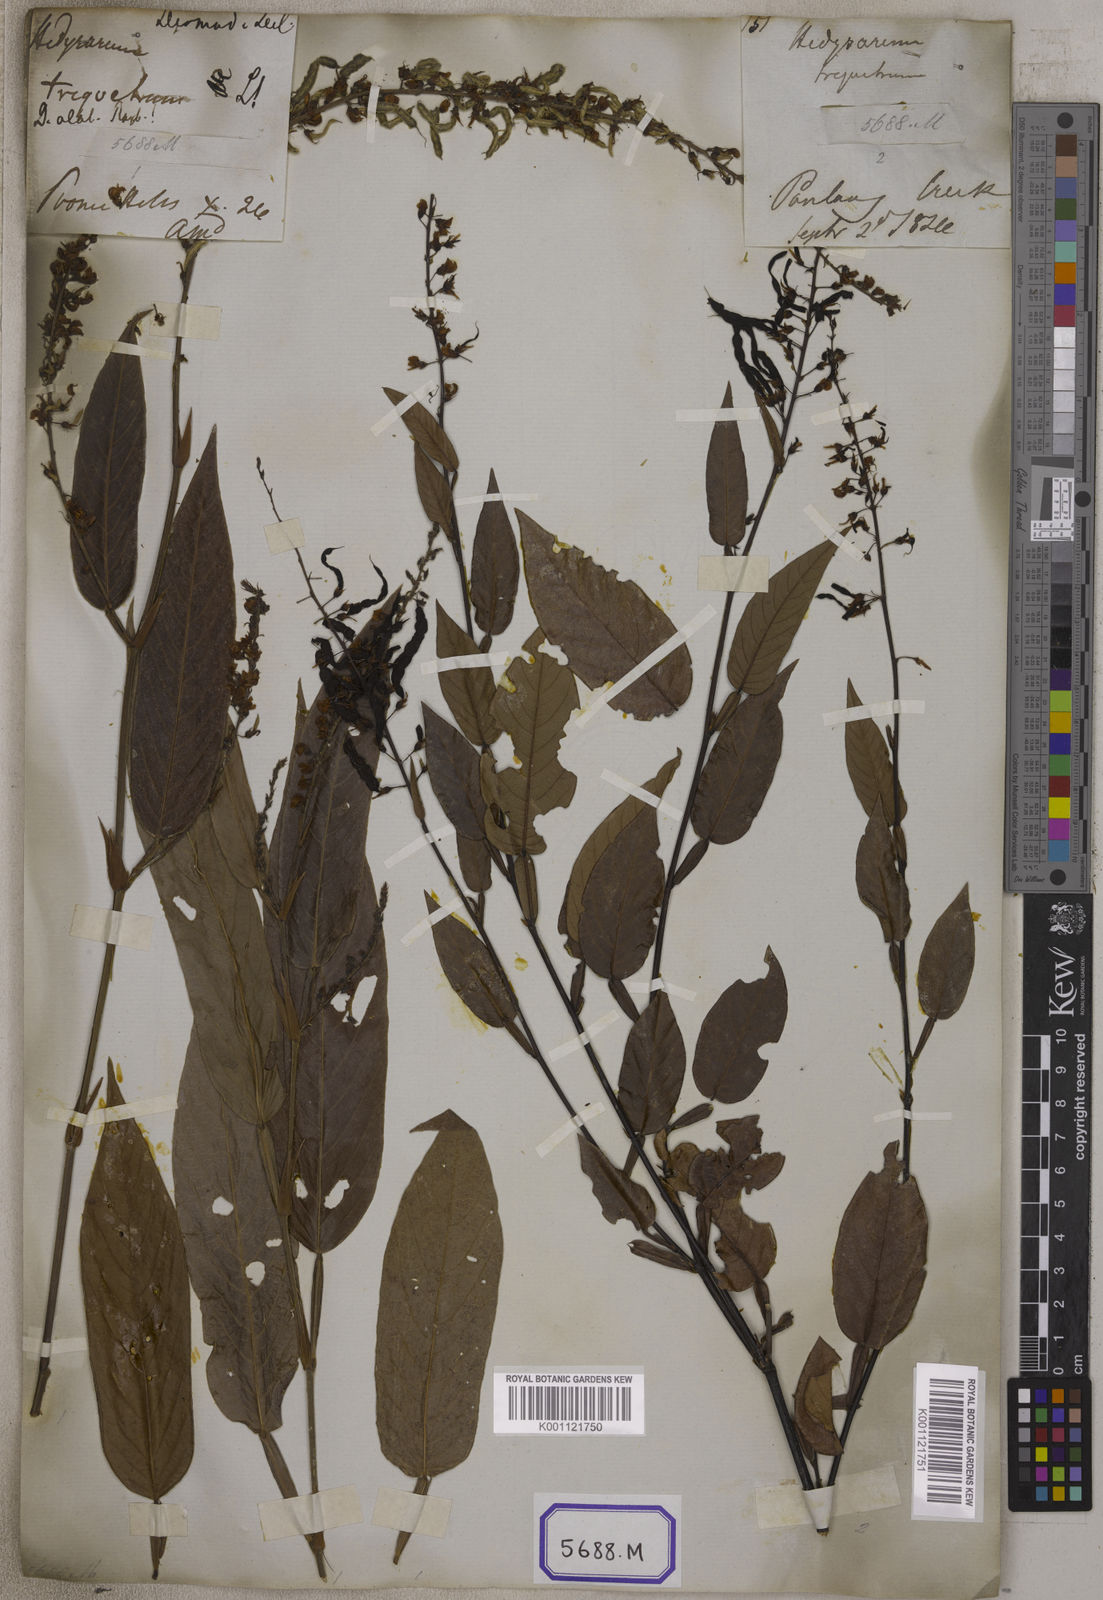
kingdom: Plantae
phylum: Tracheophyta
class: Magnoliopsida
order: Fabales
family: Fabaceae
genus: Tadehagi
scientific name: Tadehagi triquetrum
